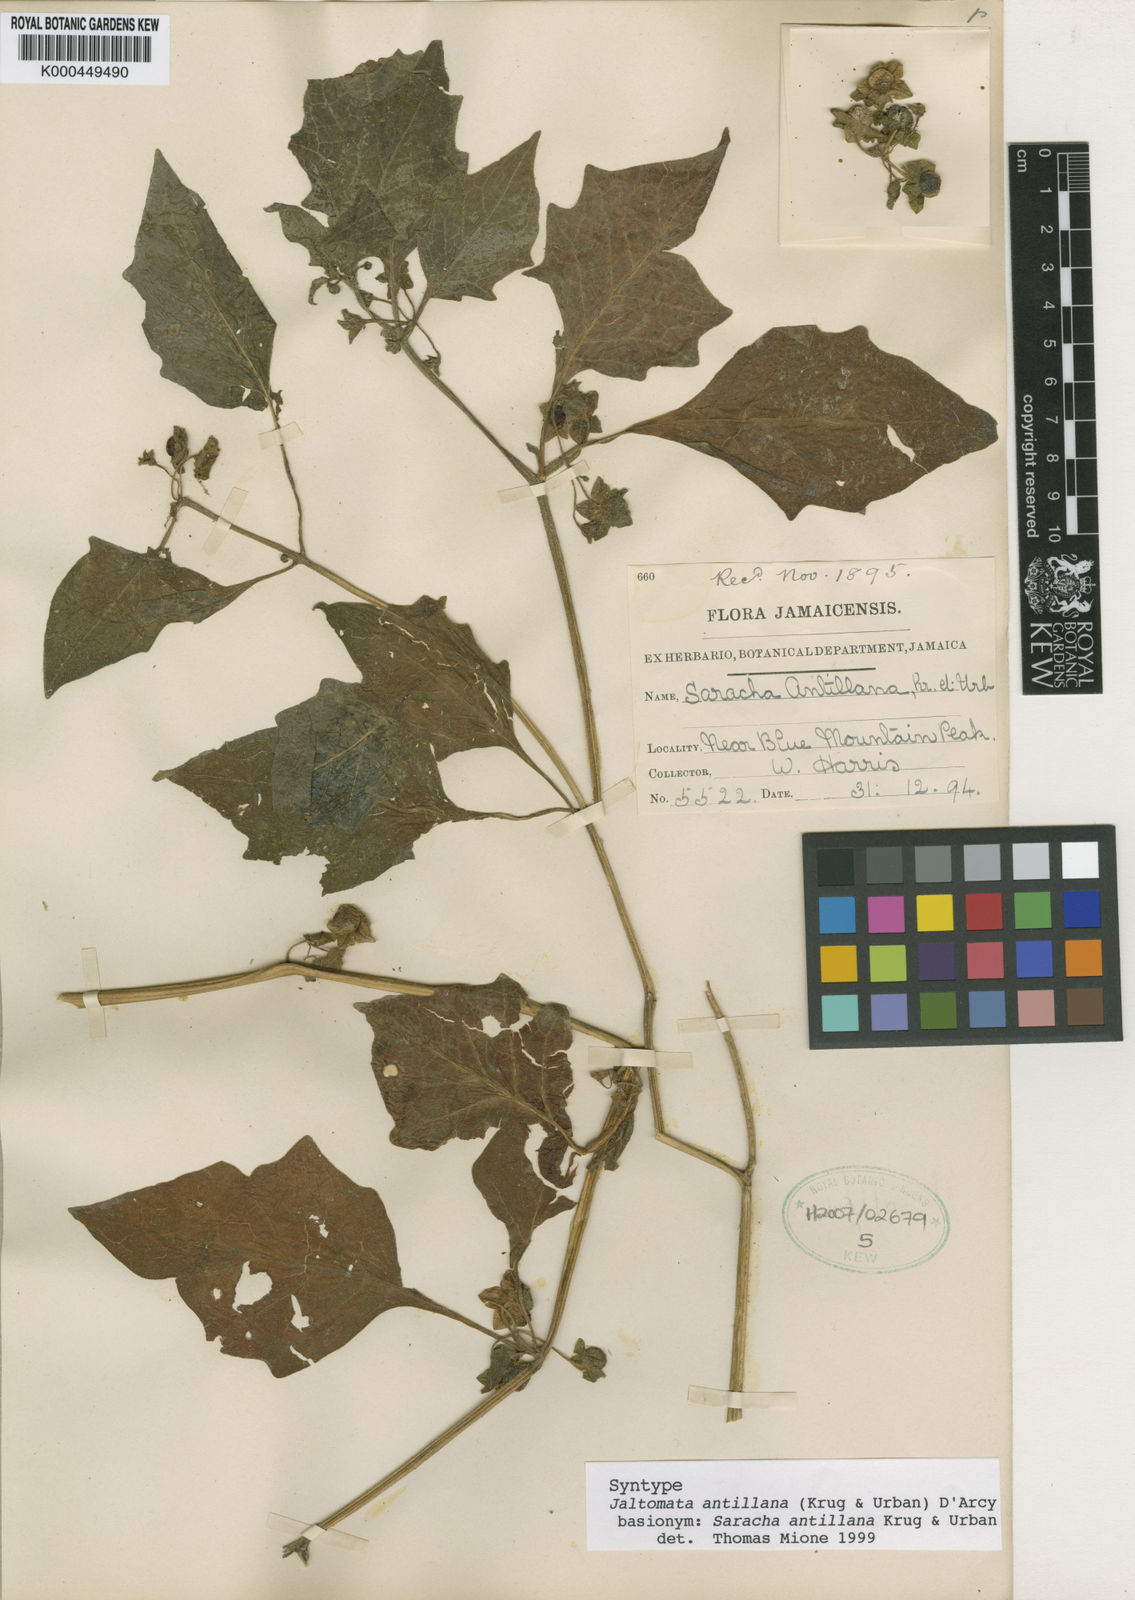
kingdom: Plantae
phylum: Tracheophyta
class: Magnoliopsida
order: Solanales
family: Solanaceae
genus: Jaltomata
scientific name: Jaltomata antillana
